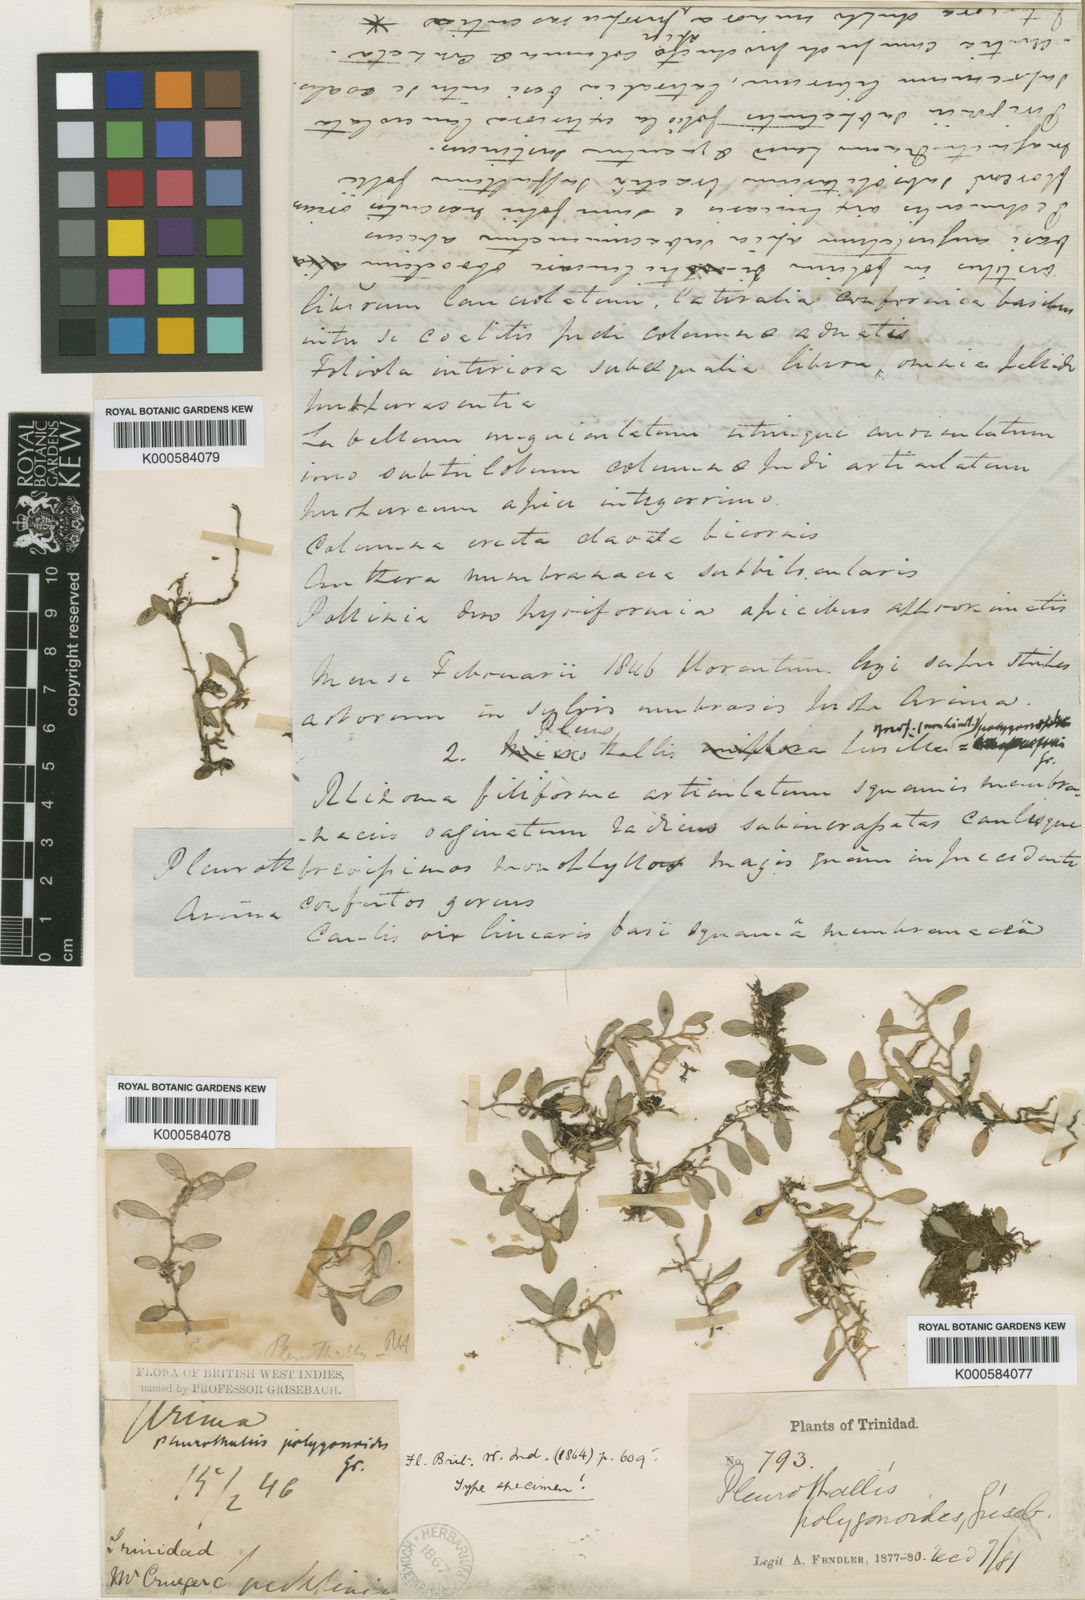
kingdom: Plantae
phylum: Tracheophyta
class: Liliopsida
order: Asparagales
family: Orchidaceae
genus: Anathallis
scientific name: Anathallis polygonoides
